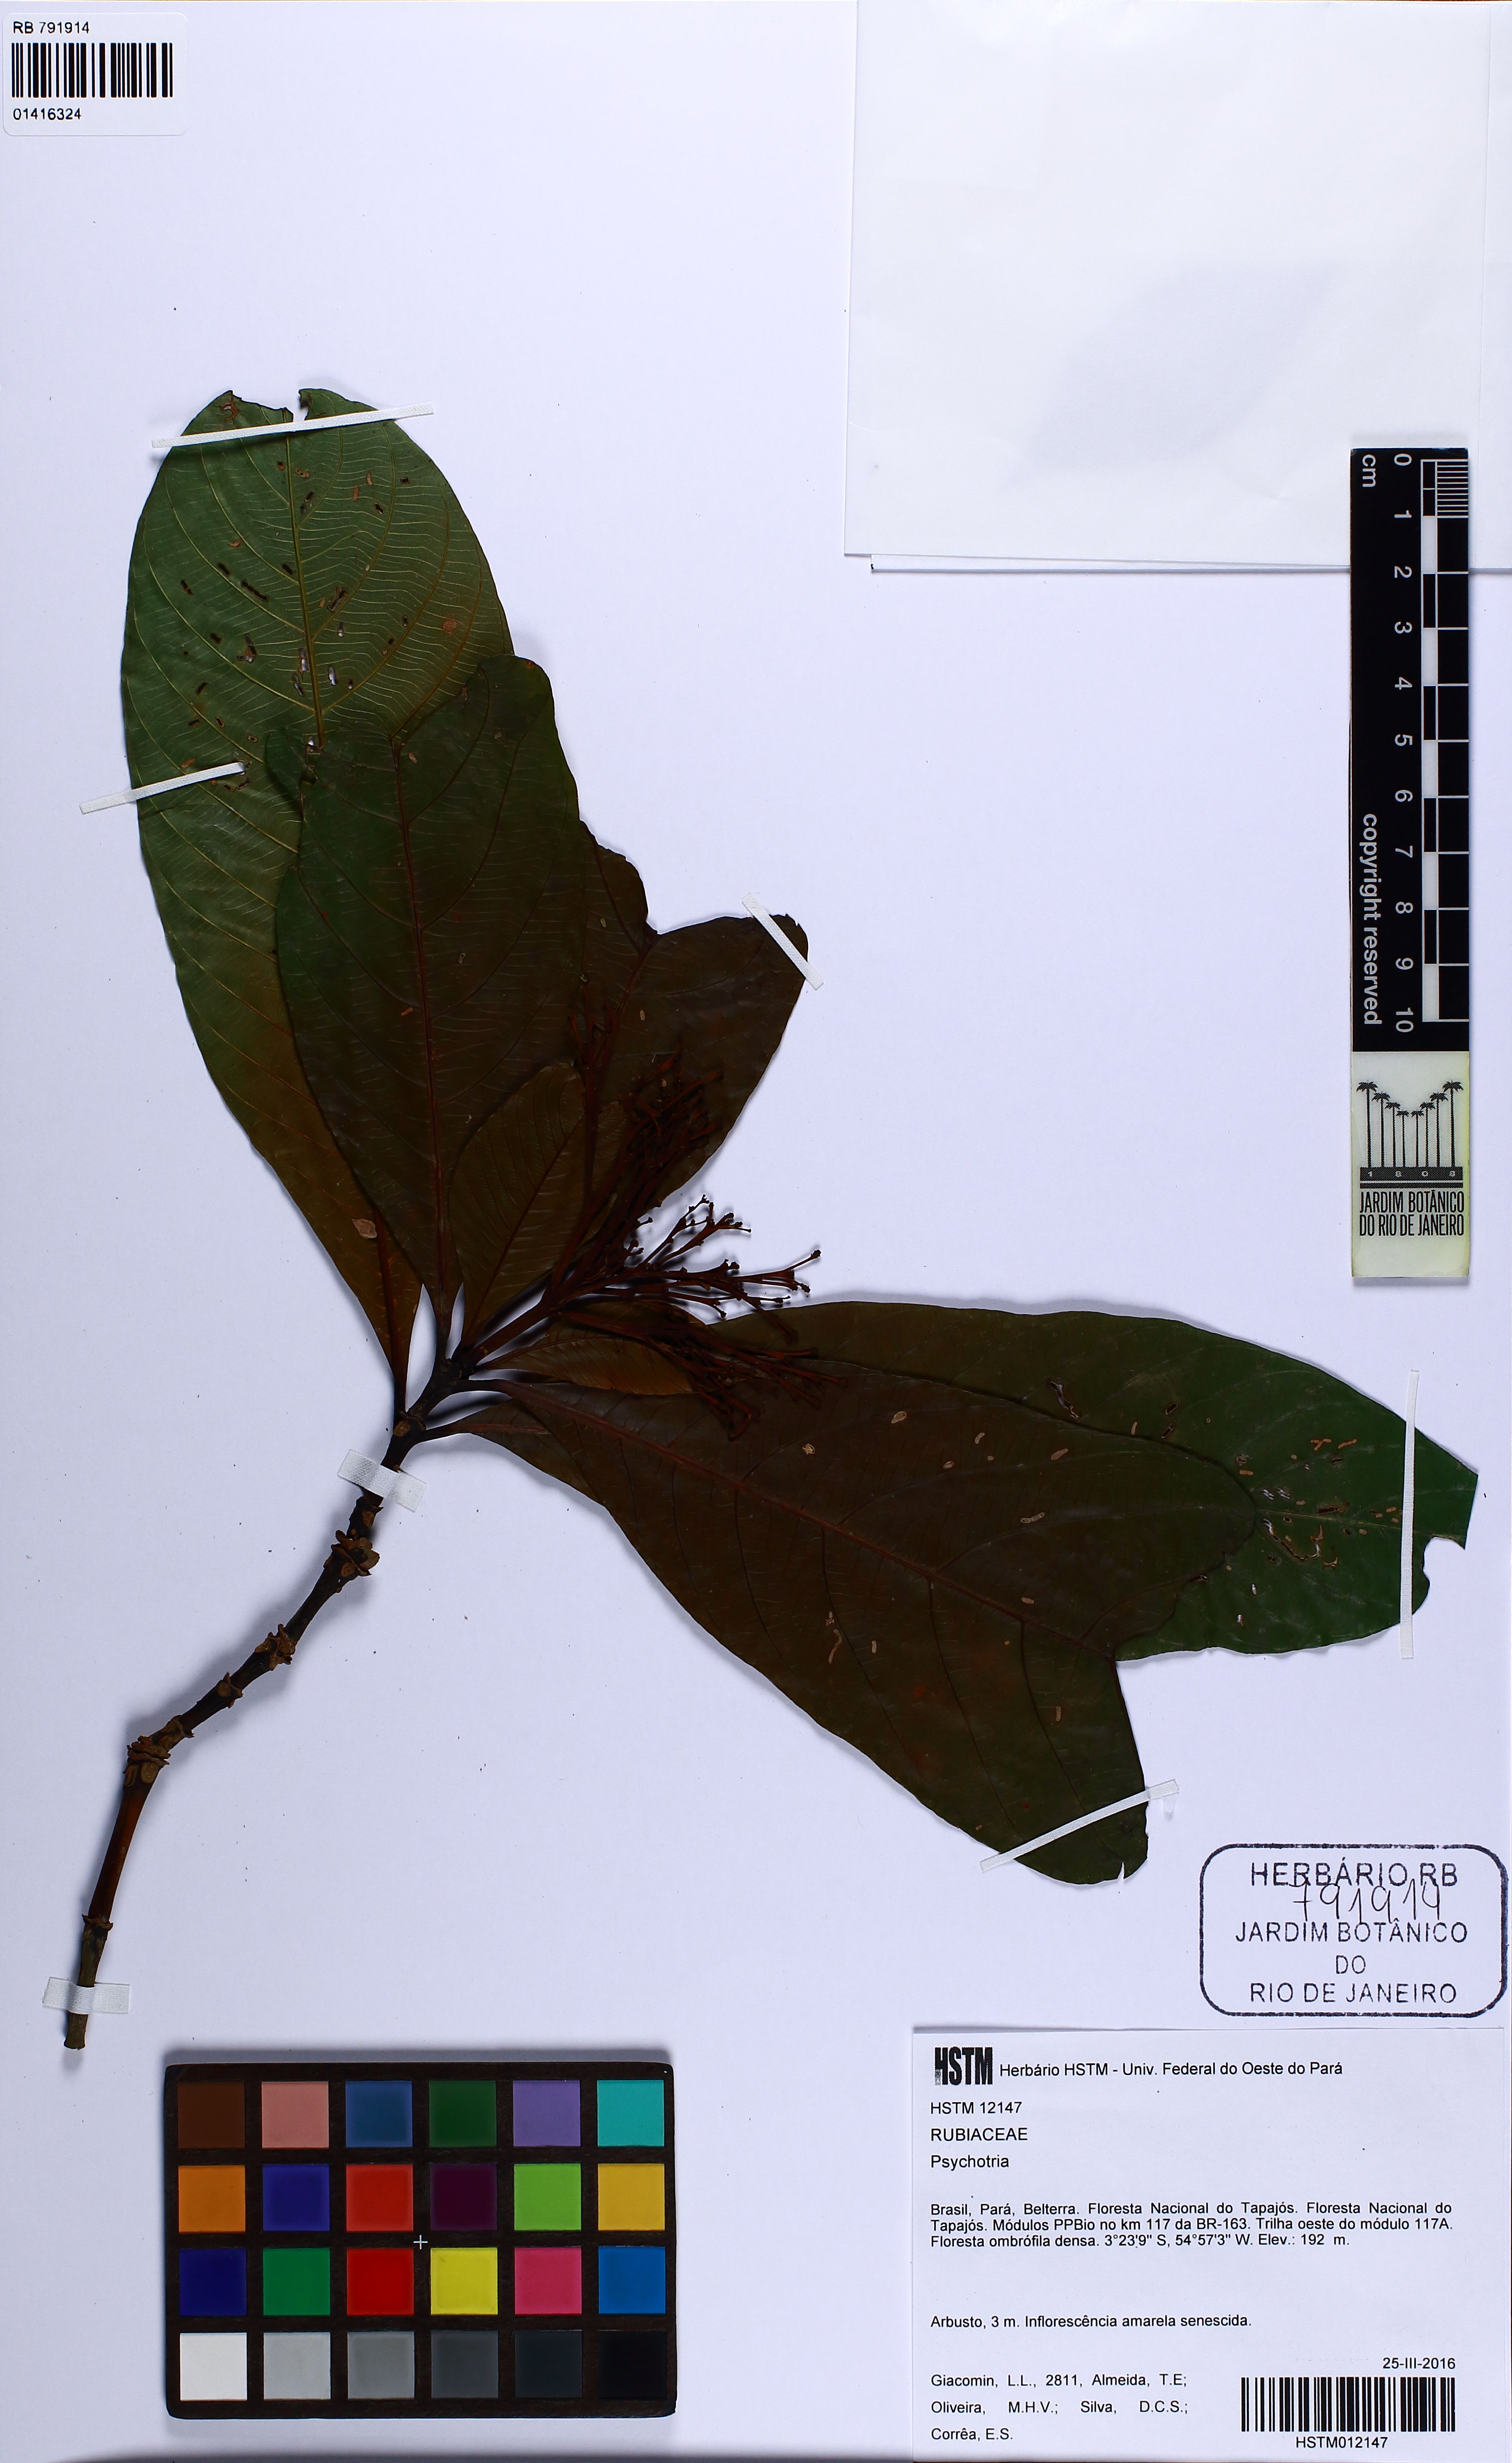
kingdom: Plantae
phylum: Tracheophyta
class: Magnoliopsida
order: Gentianales
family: Rubiaceae
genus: Psychotria
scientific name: Psychotria
